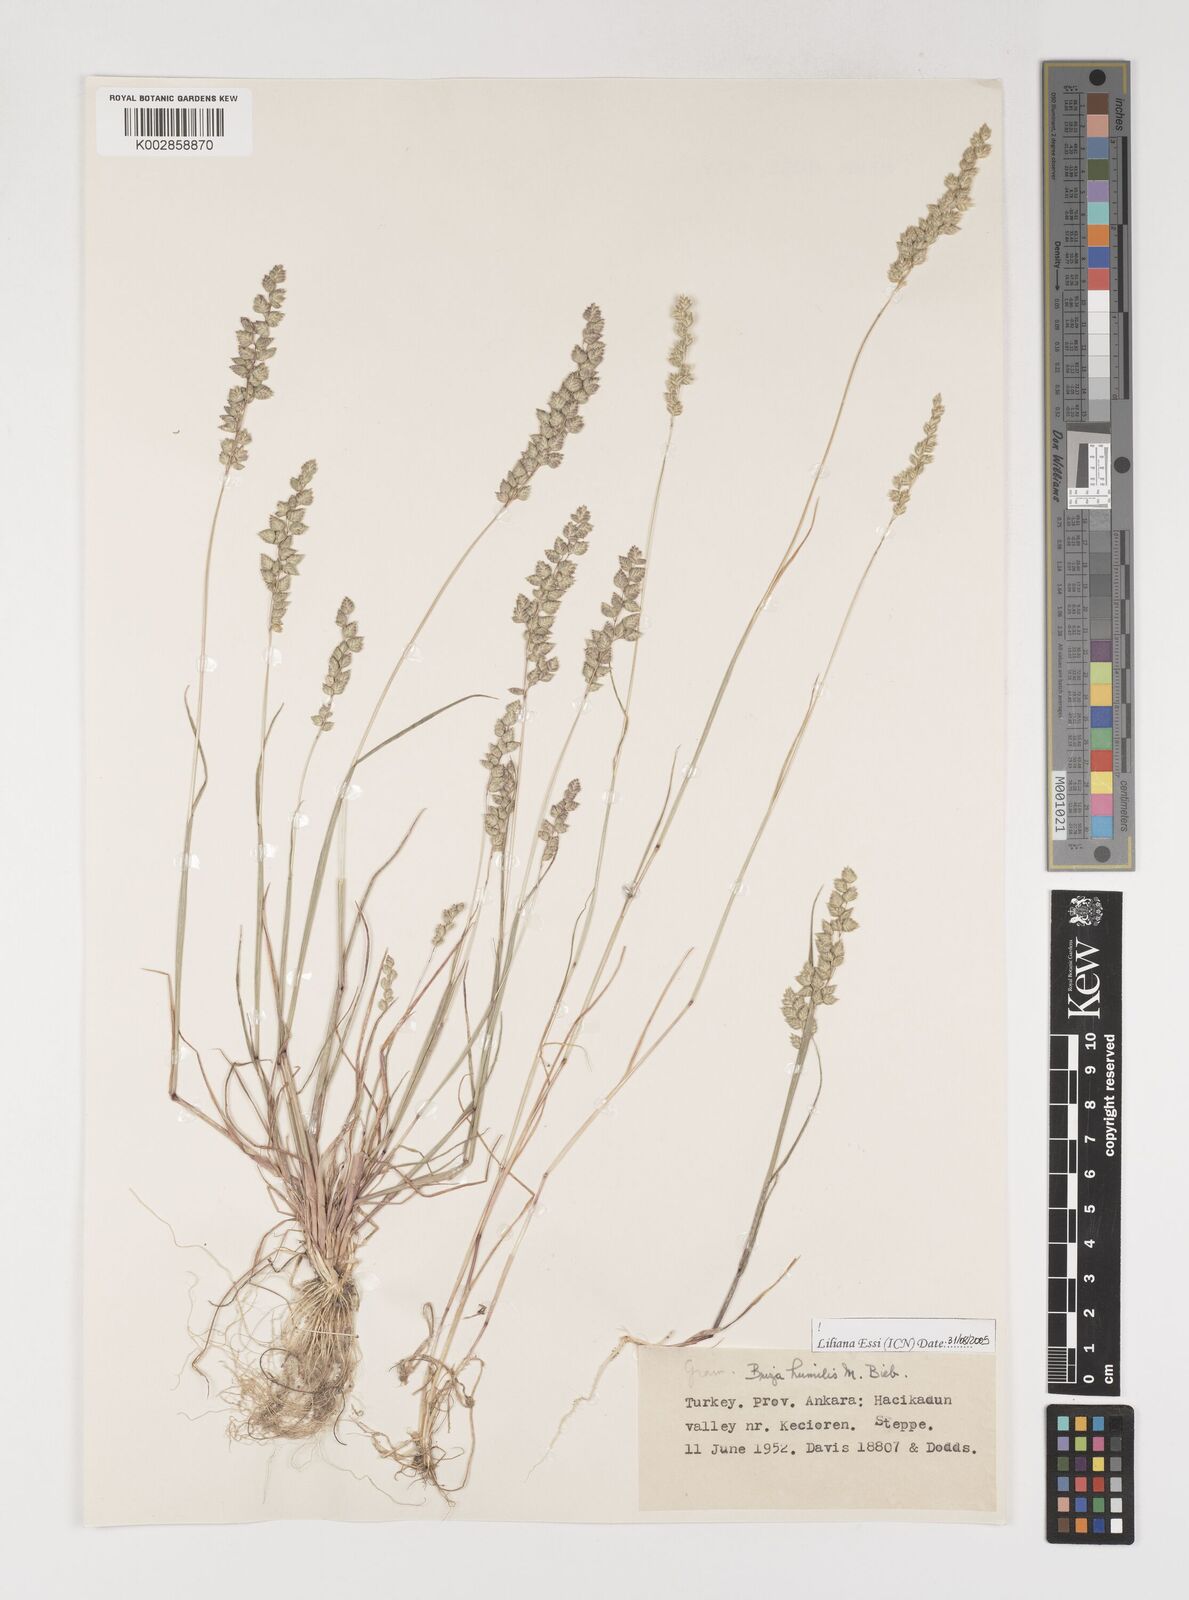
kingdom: Plantae
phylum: Tracheophyta
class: Liliopsida
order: Poales
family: Poaceae
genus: Briza
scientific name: Briza humilis
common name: Spiked quaking grass
